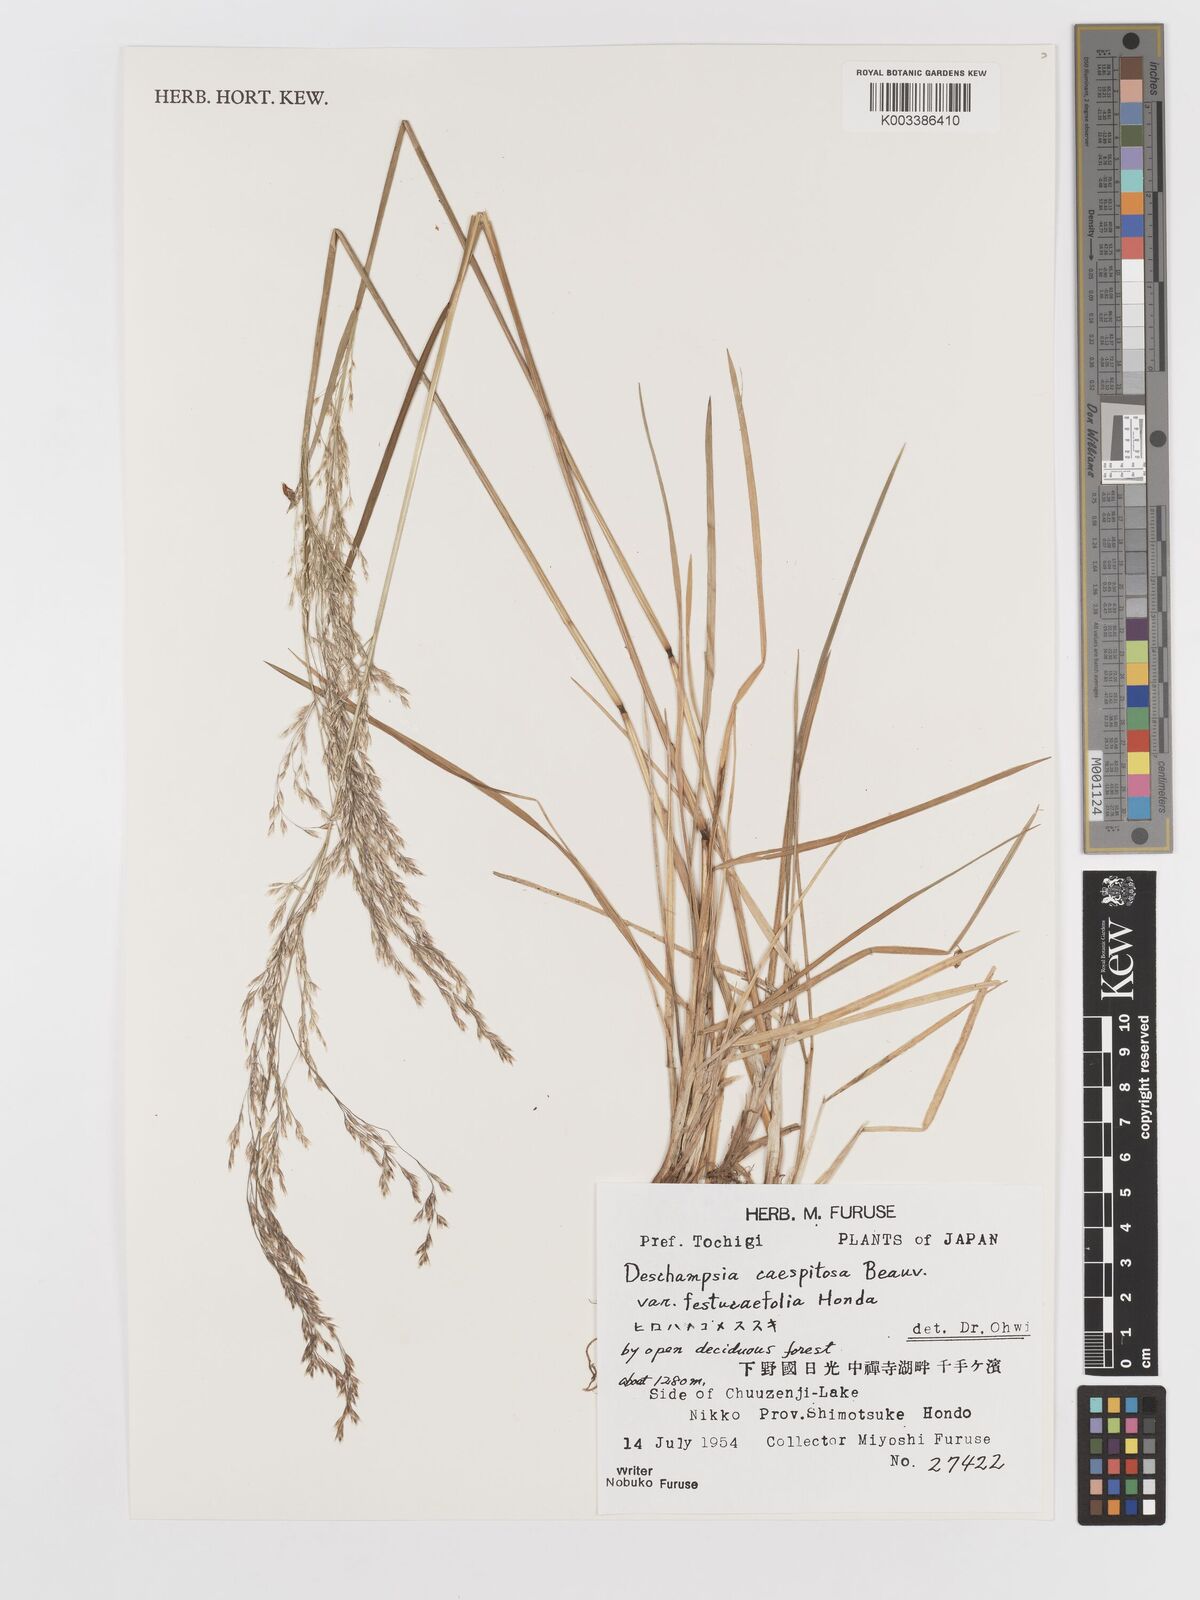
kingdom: Plantae
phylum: Tracheophyta
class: Liliopsida
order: Poales
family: Poaceae
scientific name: Poaceae
